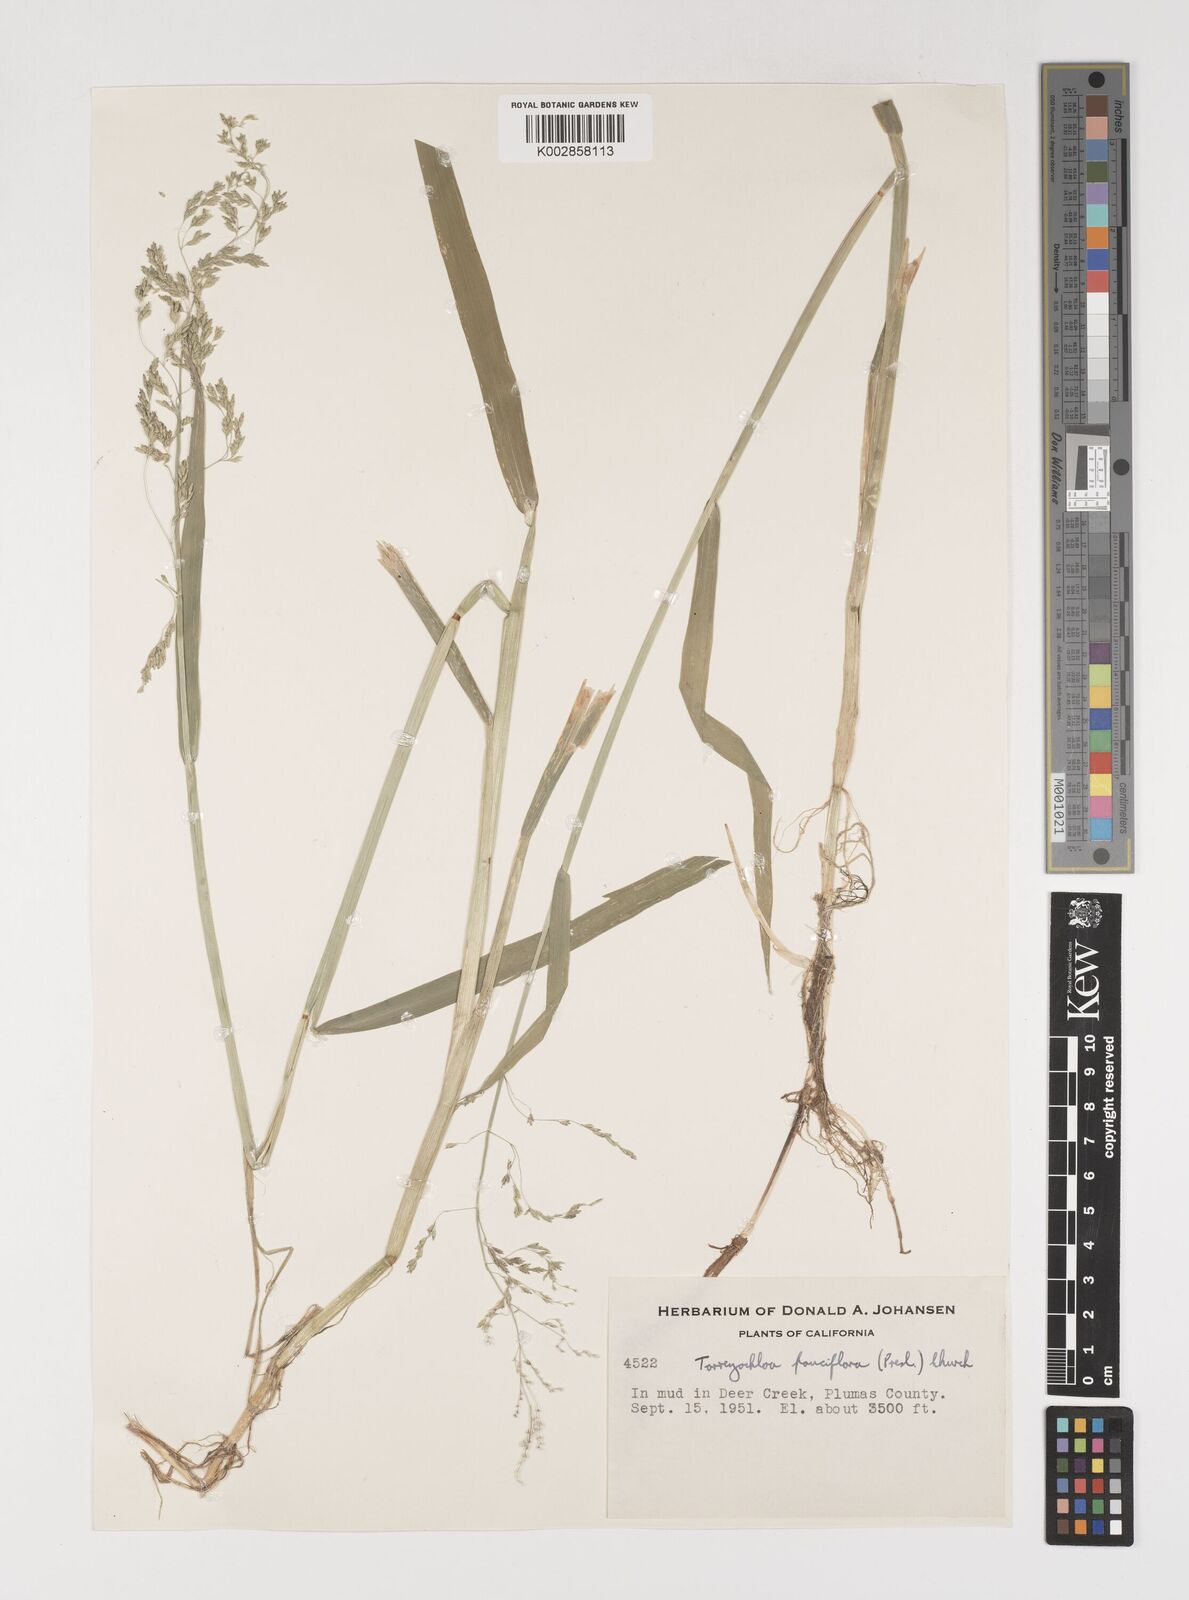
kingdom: Plantae
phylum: Tracheophyta
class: Liliopsida
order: Poales
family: Poaceae
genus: Torreyochloa
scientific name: Torreyochloa pallida
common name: Pale false mannagrass
